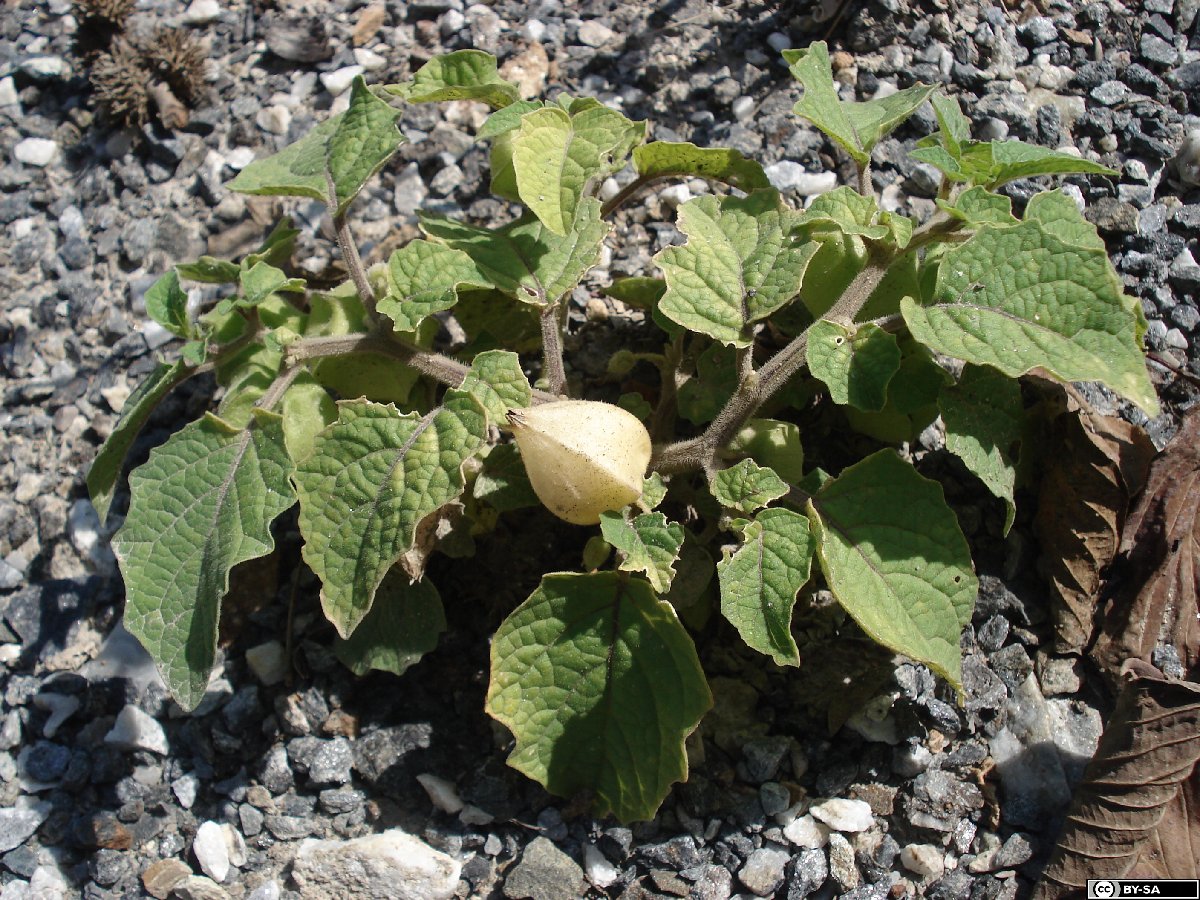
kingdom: Plantae
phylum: Tracheophyta
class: Magnoliopsida
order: Solanales
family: Solanaceae
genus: Physalis
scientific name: Physalis grisea
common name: Dwarf cape-gooseberry
